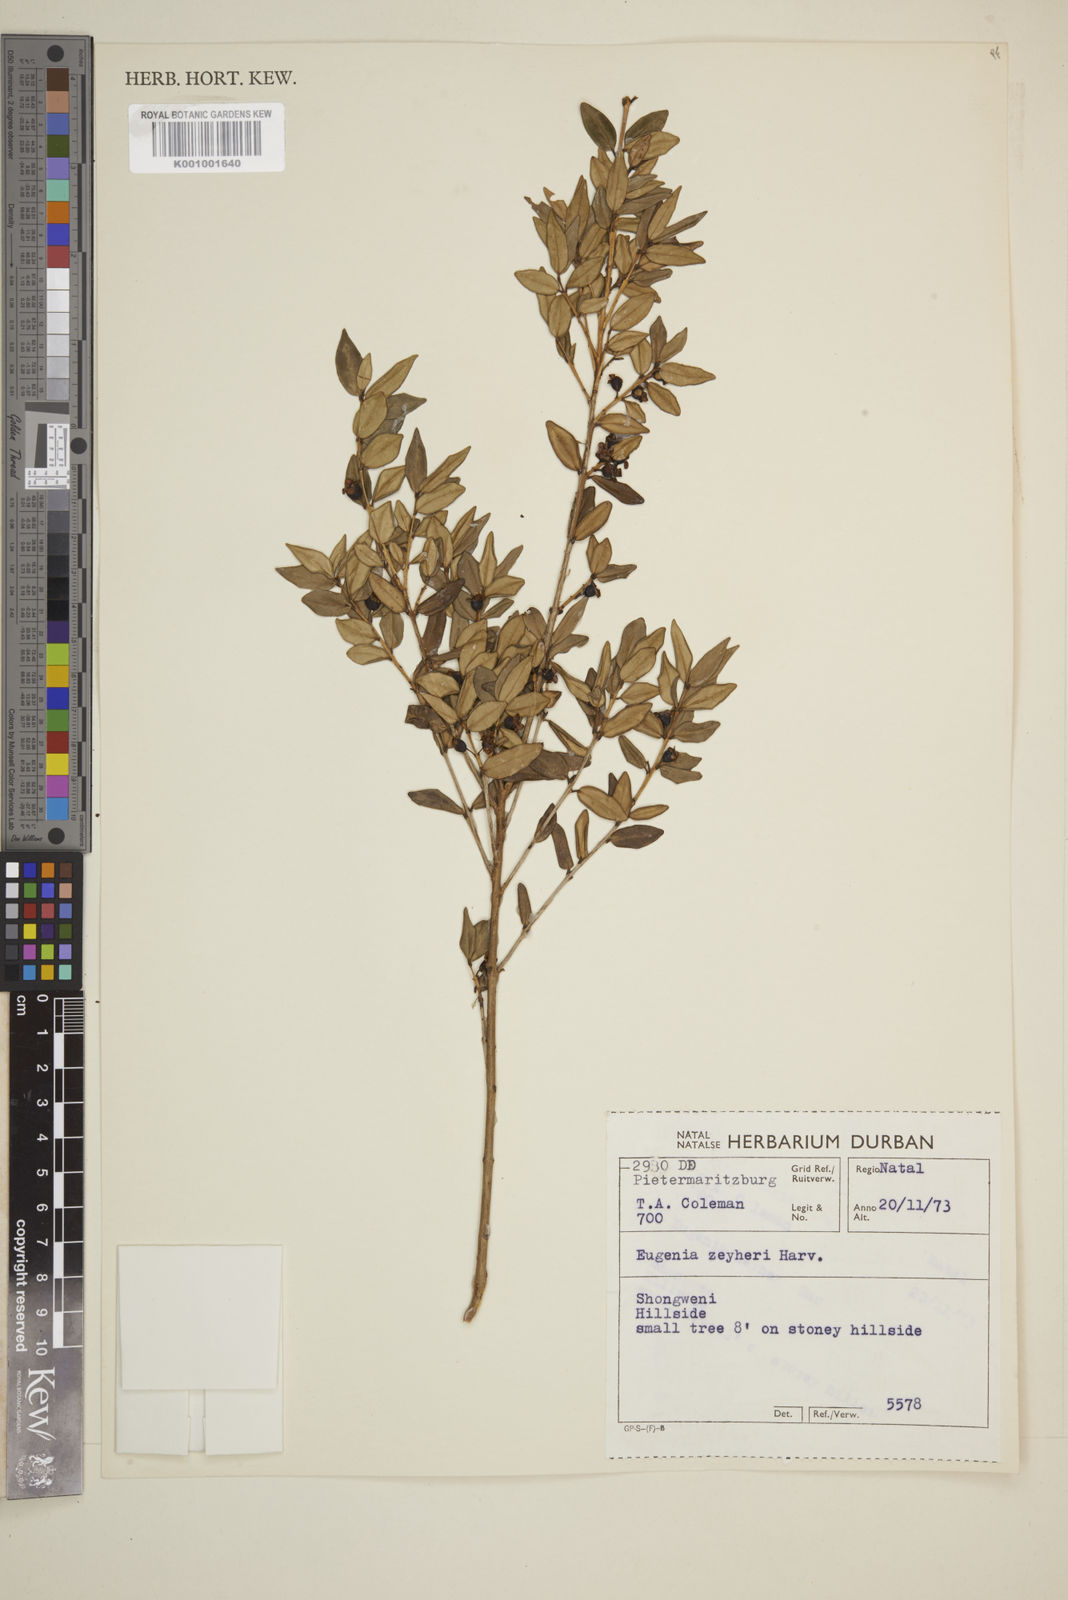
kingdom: Plantae
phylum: Tracheophyta
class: Magnoliopsida
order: Myrtales
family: Myrtaceae
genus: Eugenia
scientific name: Eugenia zeyheri
